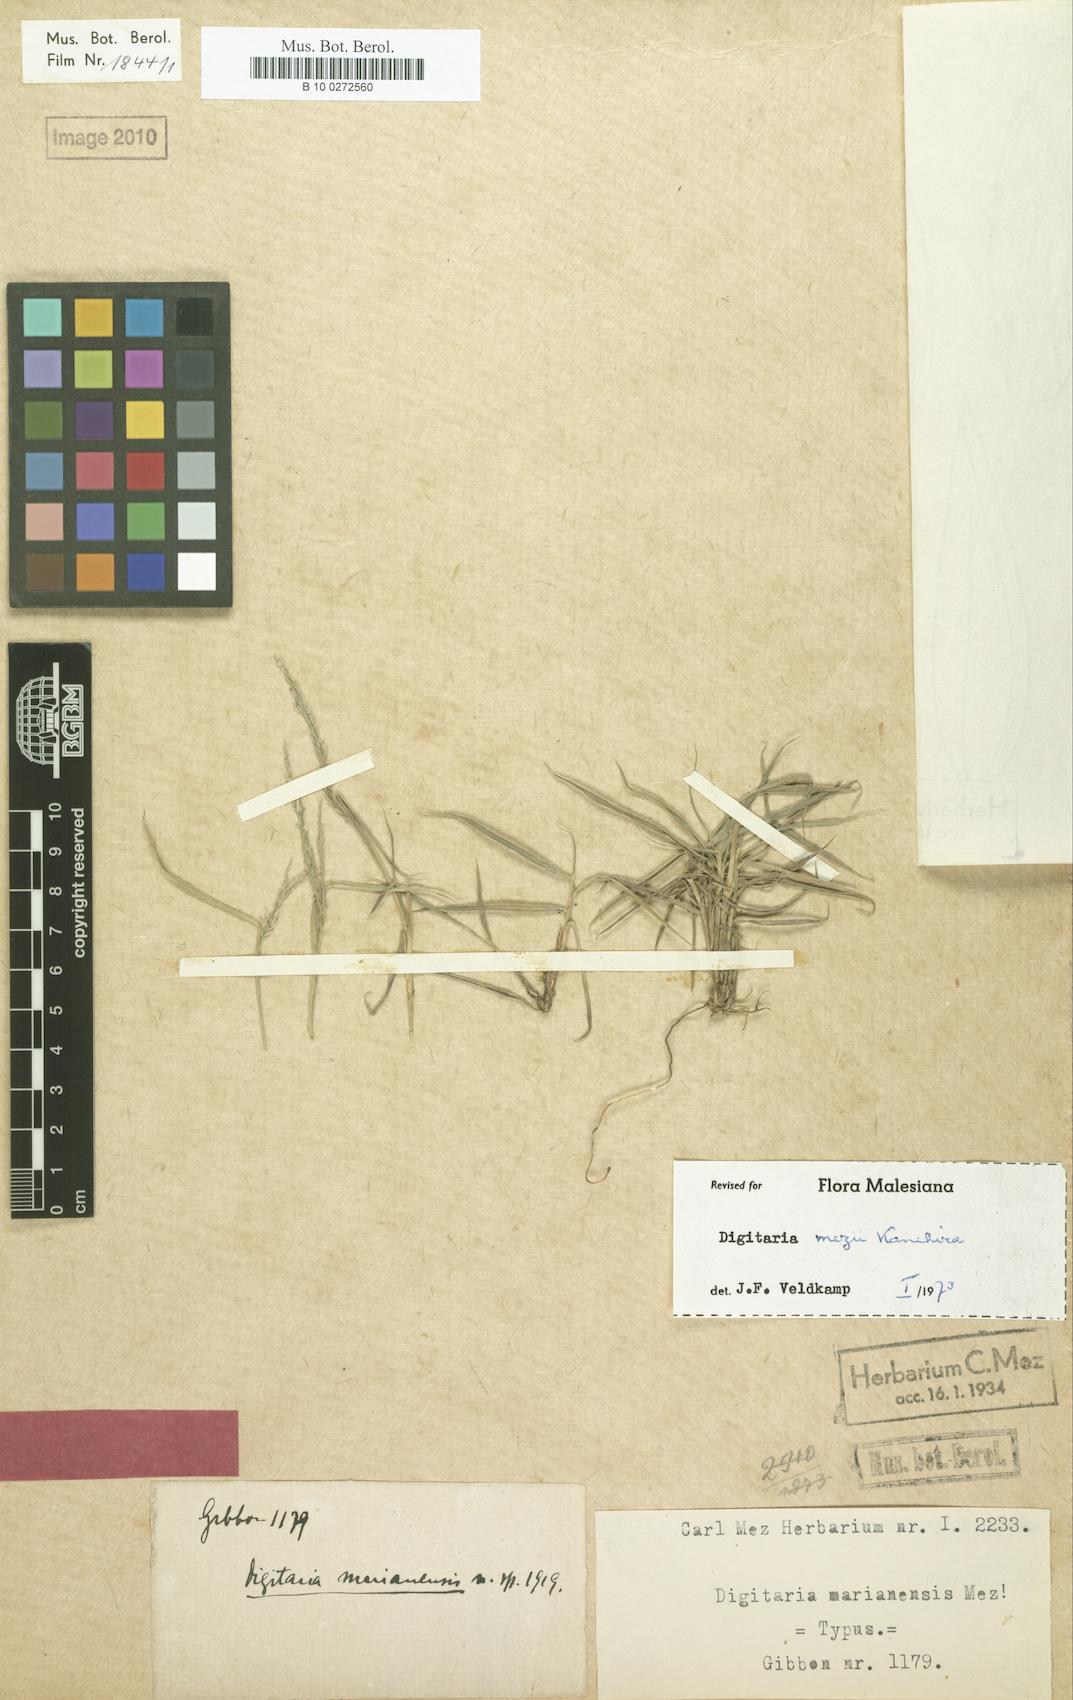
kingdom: Plantae
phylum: Tracheophyta
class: Liliopsida
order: Poales
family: Poaceae
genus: Digitaria
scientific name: Digitaria mezii
